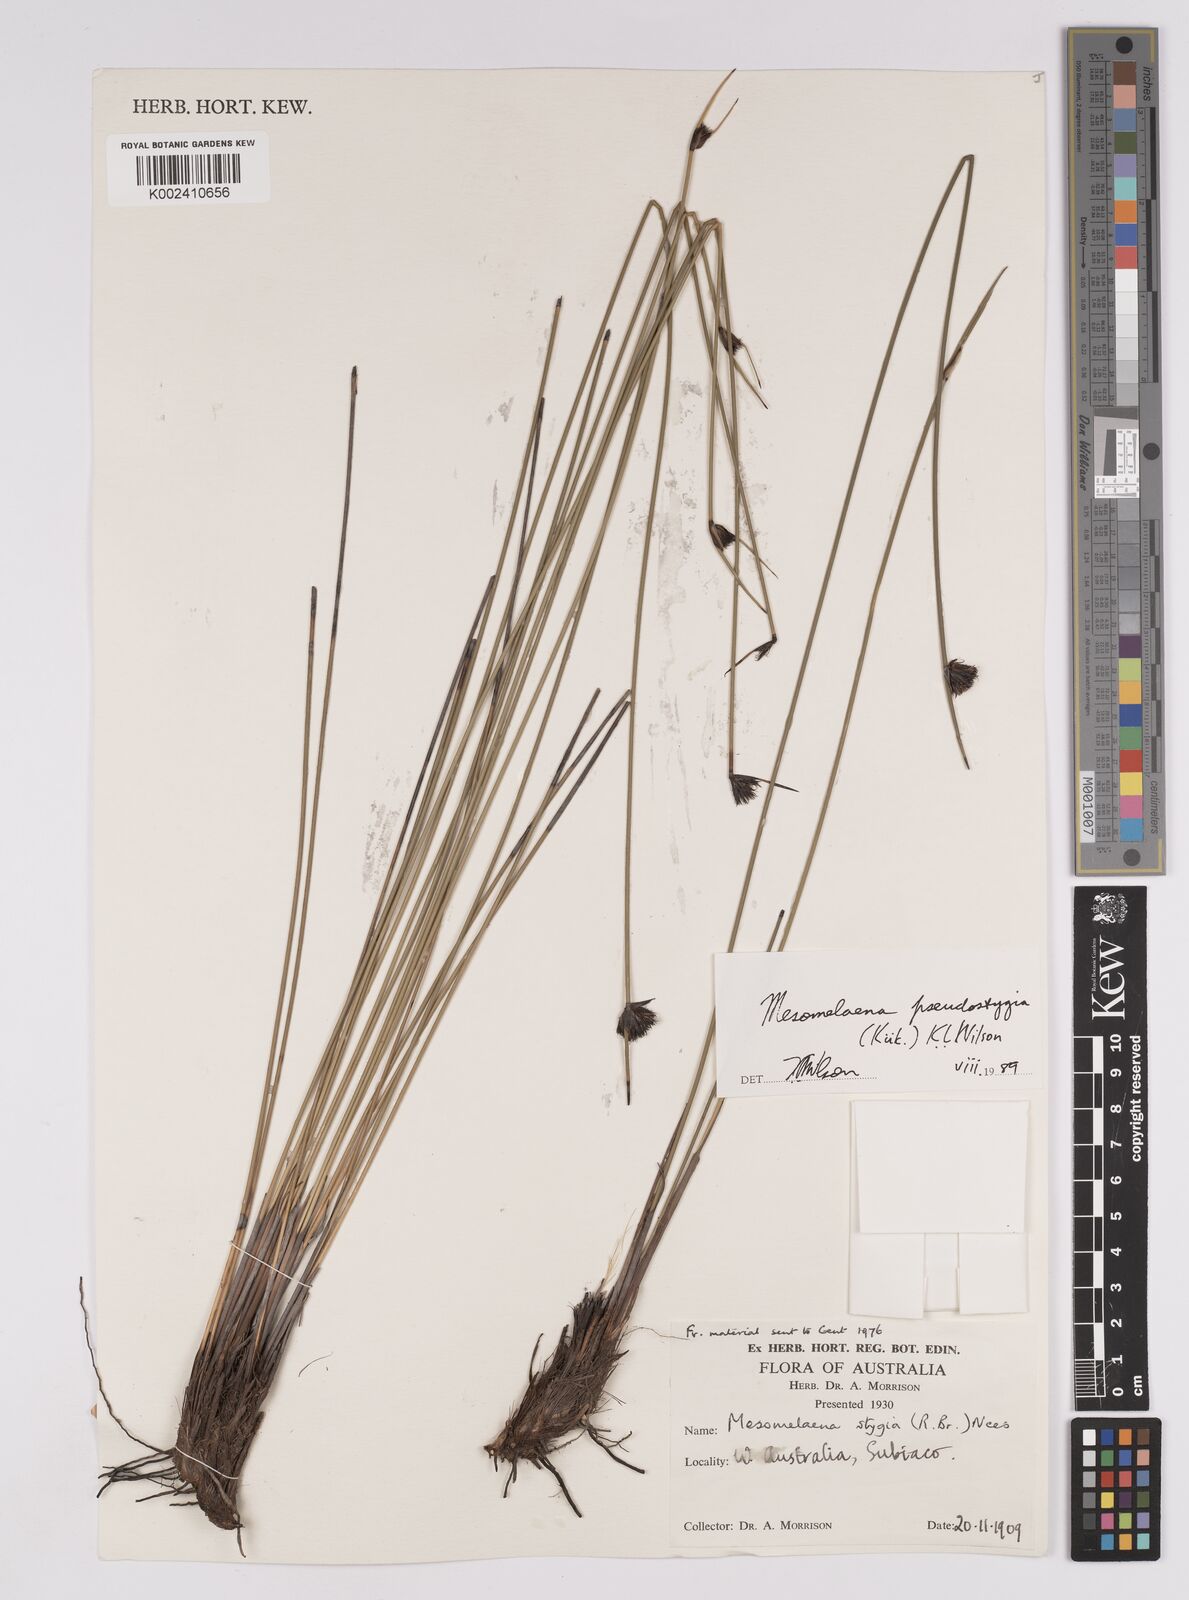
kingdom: Plantae
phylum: Tracheophyta
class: Liliopsida
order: Poales
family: Cyperaceae
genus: Mesomelaena
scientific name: Mesomelaena pseudostygia
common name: Semaphore sedge
